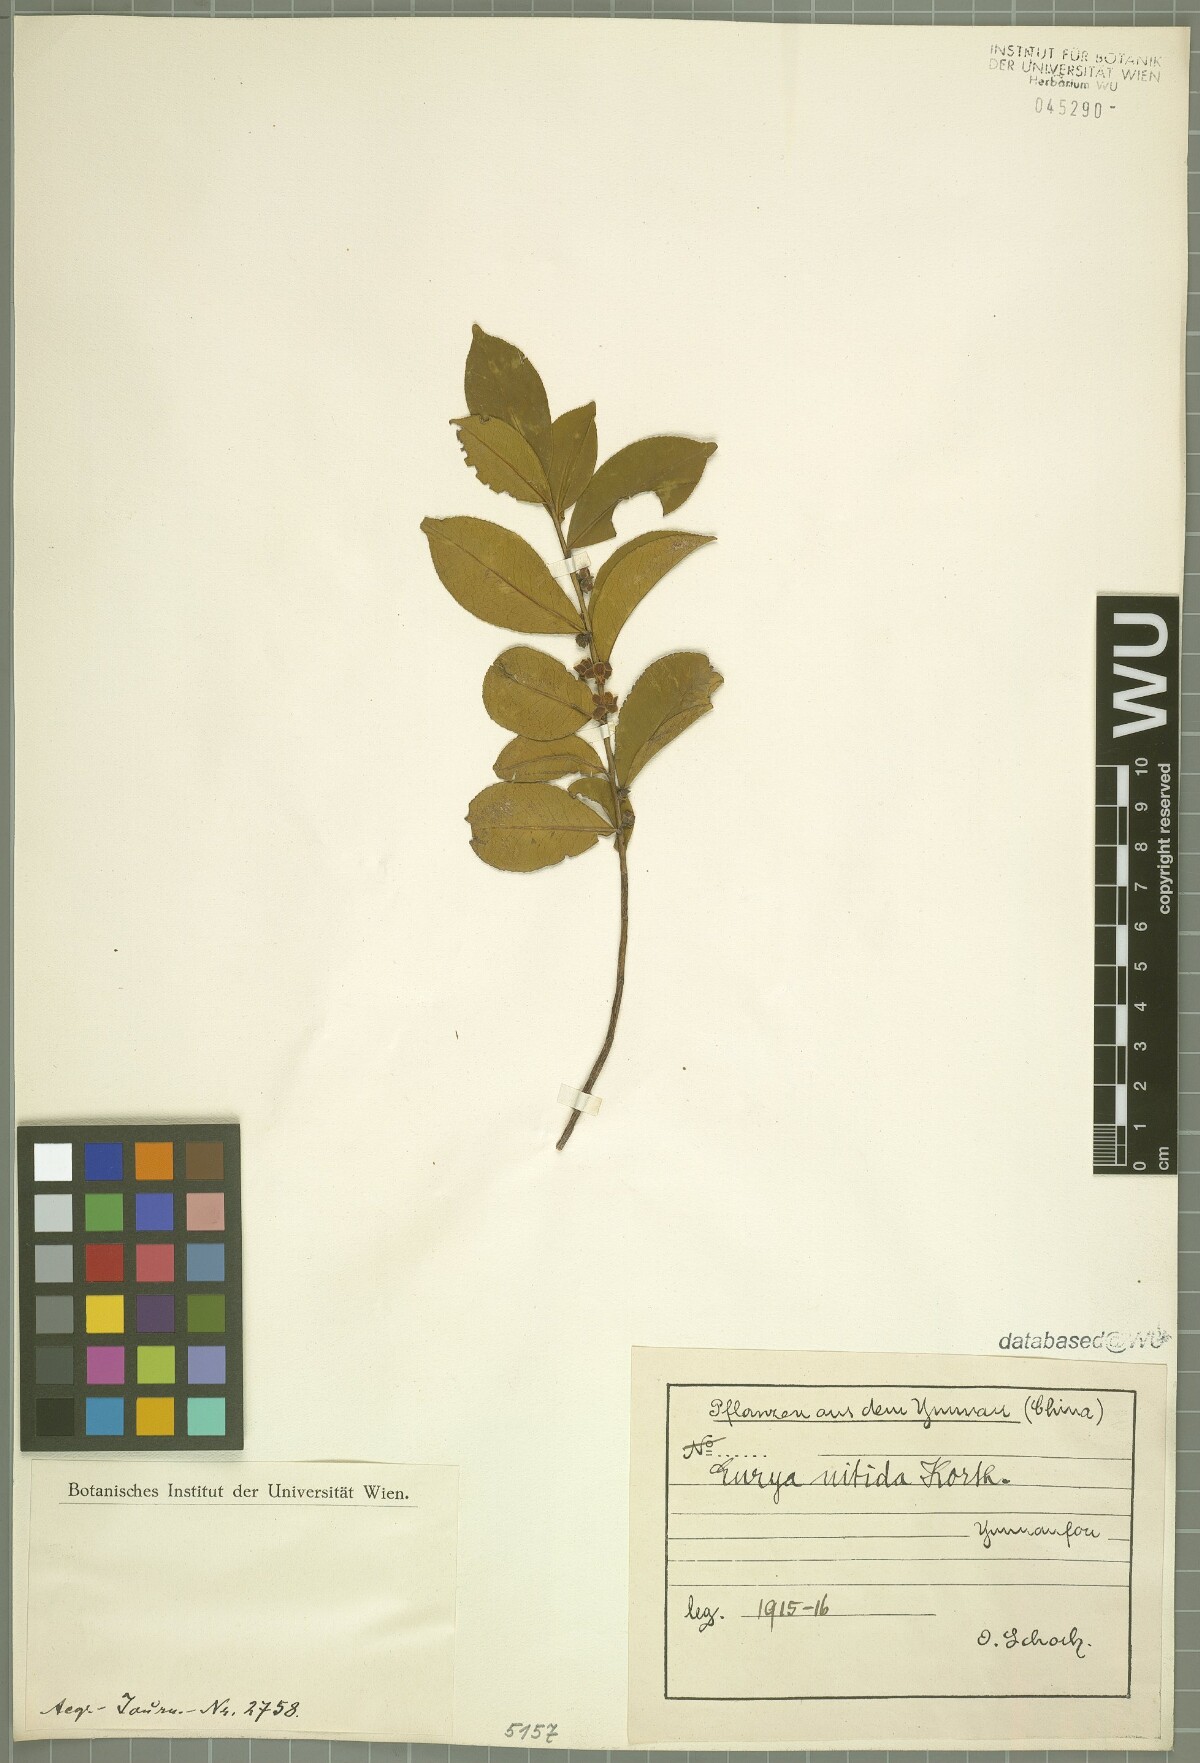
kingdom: Plantae
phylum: Tracheophyta
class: Magnoliopsida
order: Ericales
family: Pentaphylacaceae
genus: Eurya
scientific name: Eurya nitida
